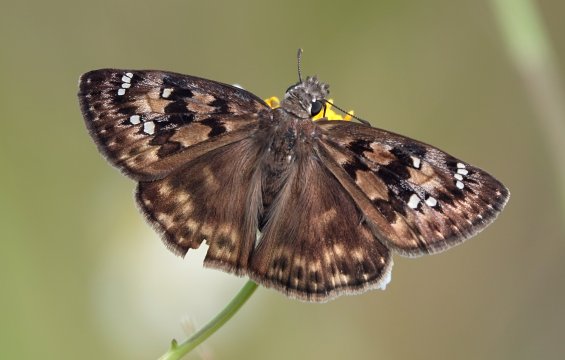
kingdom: Animalia
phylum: Arthropoda
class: Insecta
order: Lepidoptera
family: Hesperiidae
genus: Gesta
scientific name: Gesta
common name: Horace's Duskywing
